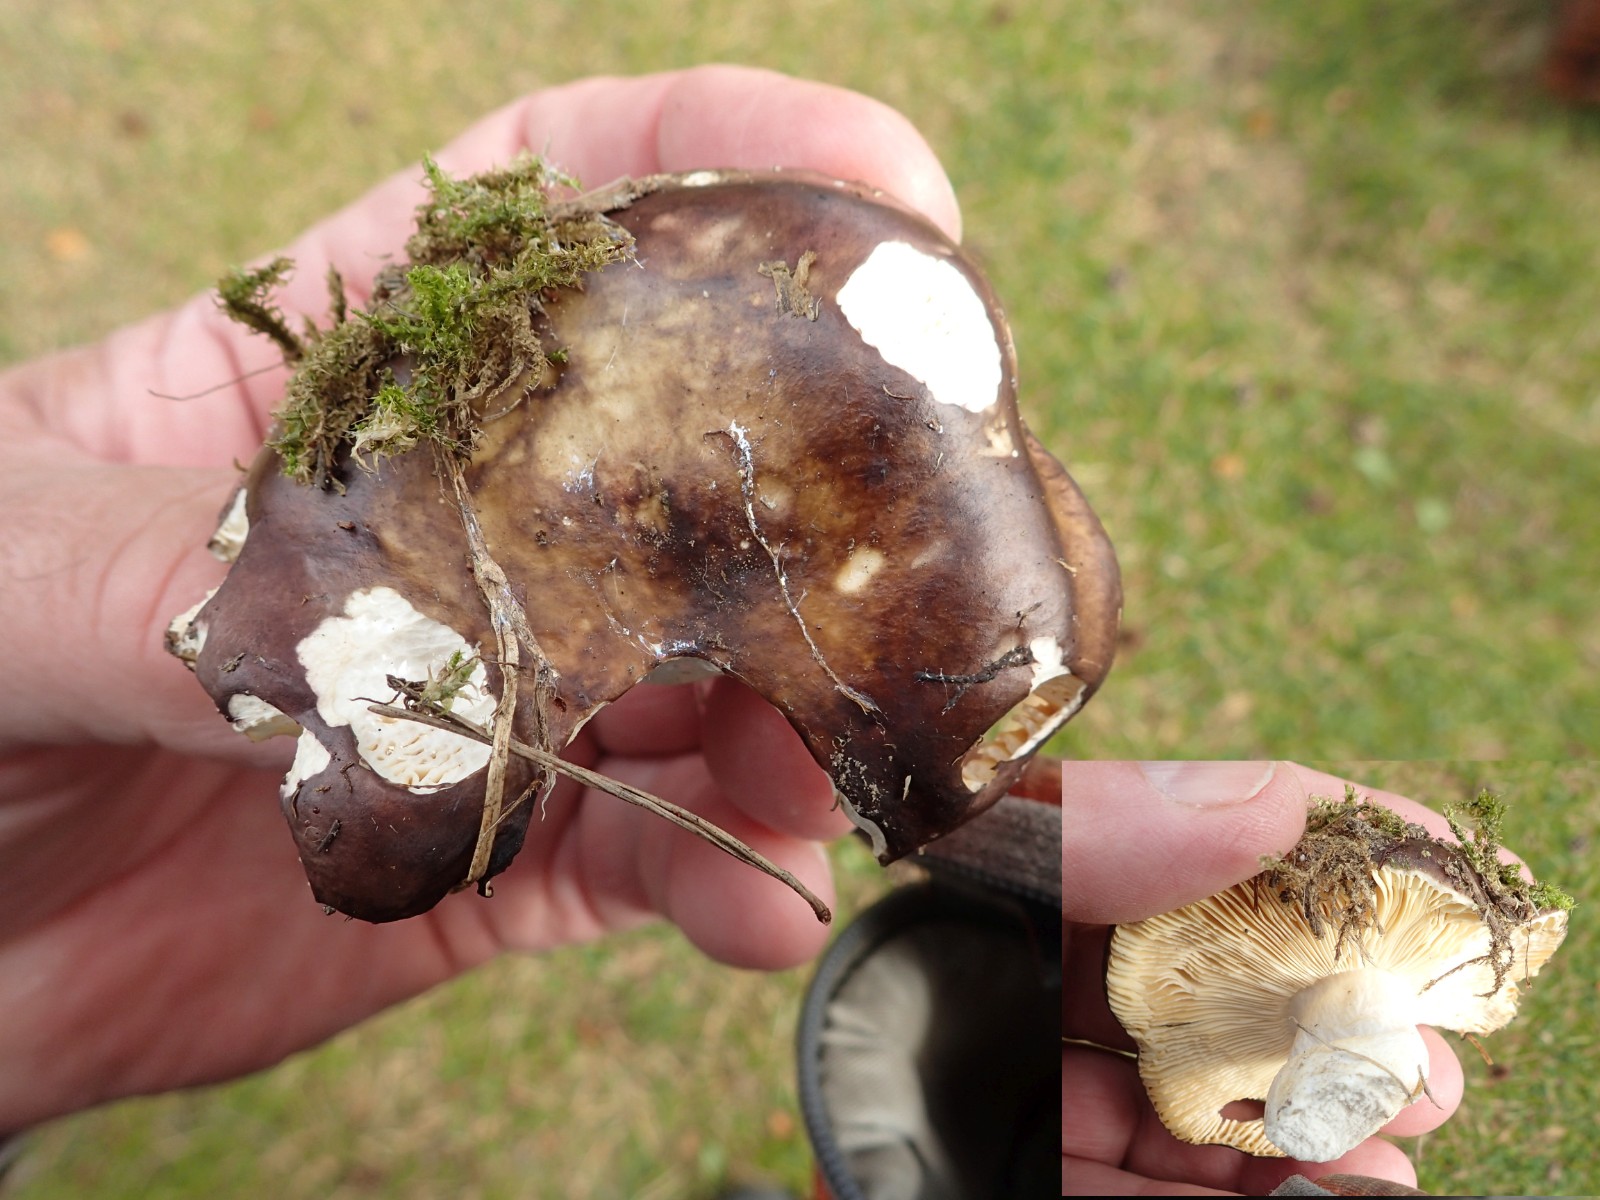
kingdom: Fungi
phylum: Basidiomycota
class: Agaricomycetes
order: Russulales
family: Russulaceae
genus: Russula
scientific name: Russula integra
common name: mandel-skørhat
